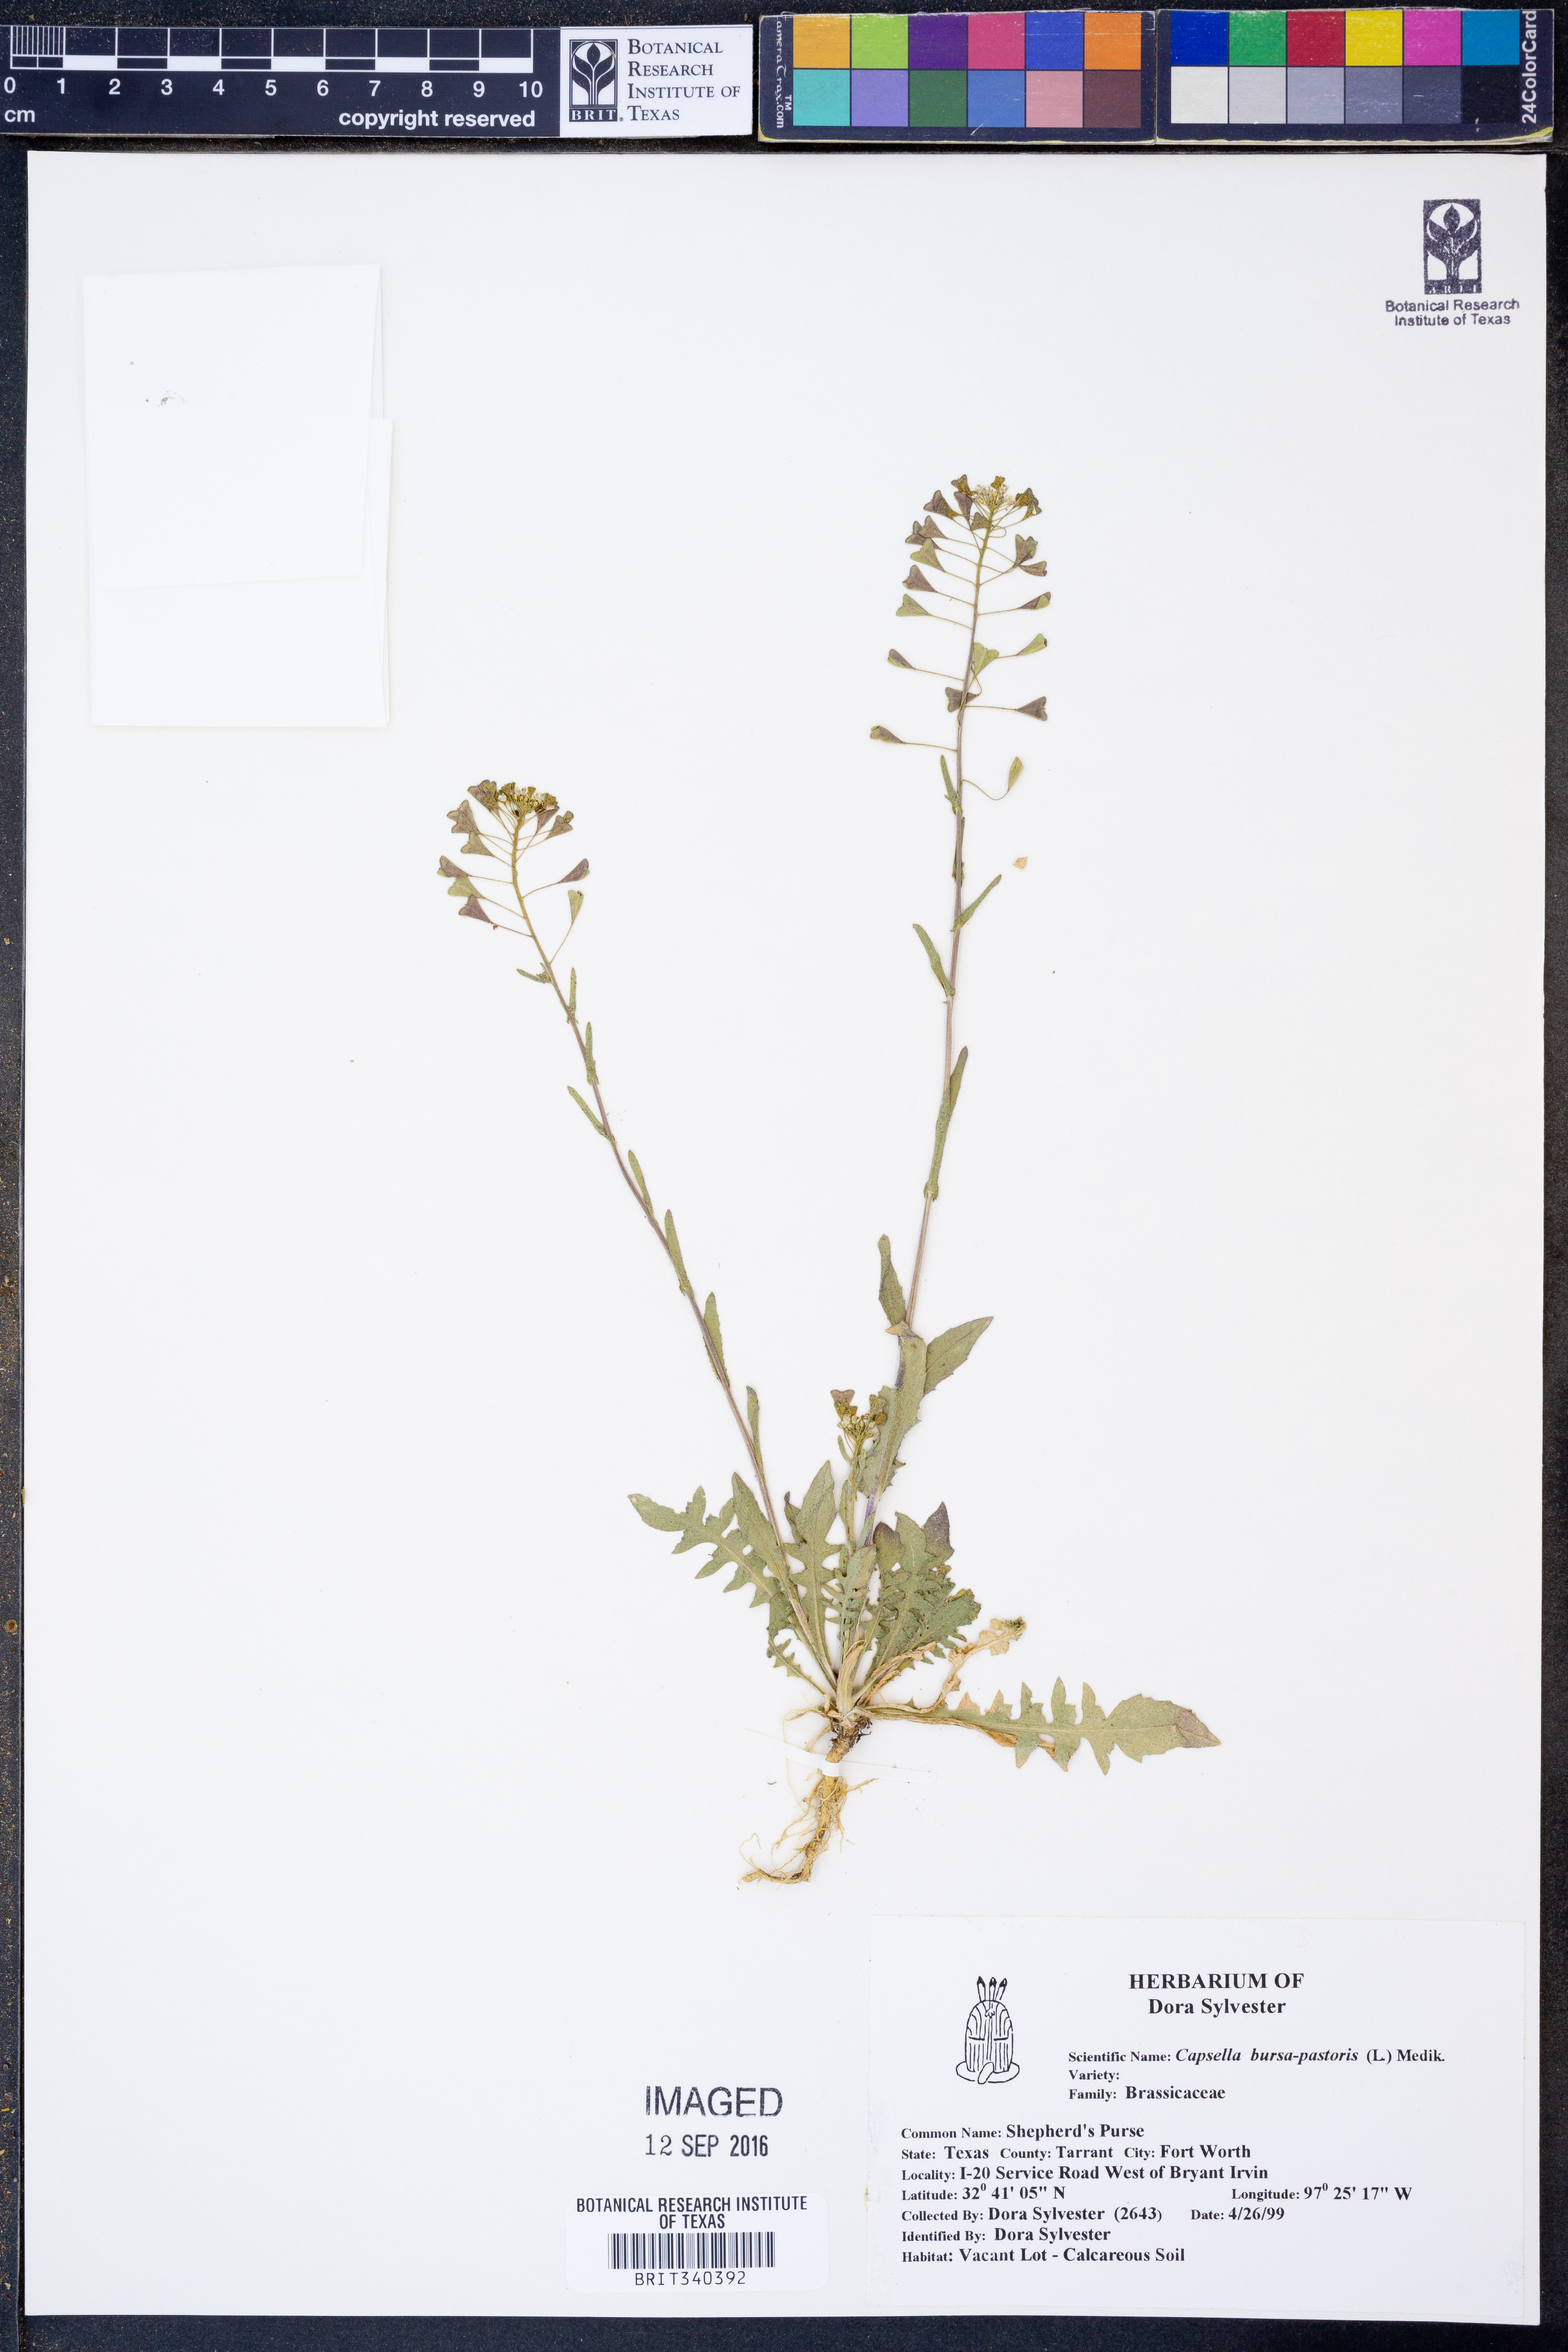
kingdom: Plantae
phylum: Tracheophyta
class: Magnoliopsida
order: Brassicales
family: Brassicaceae
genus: Capsella
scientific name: Capsella bursa-pastoris
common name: Shepherd's purse
